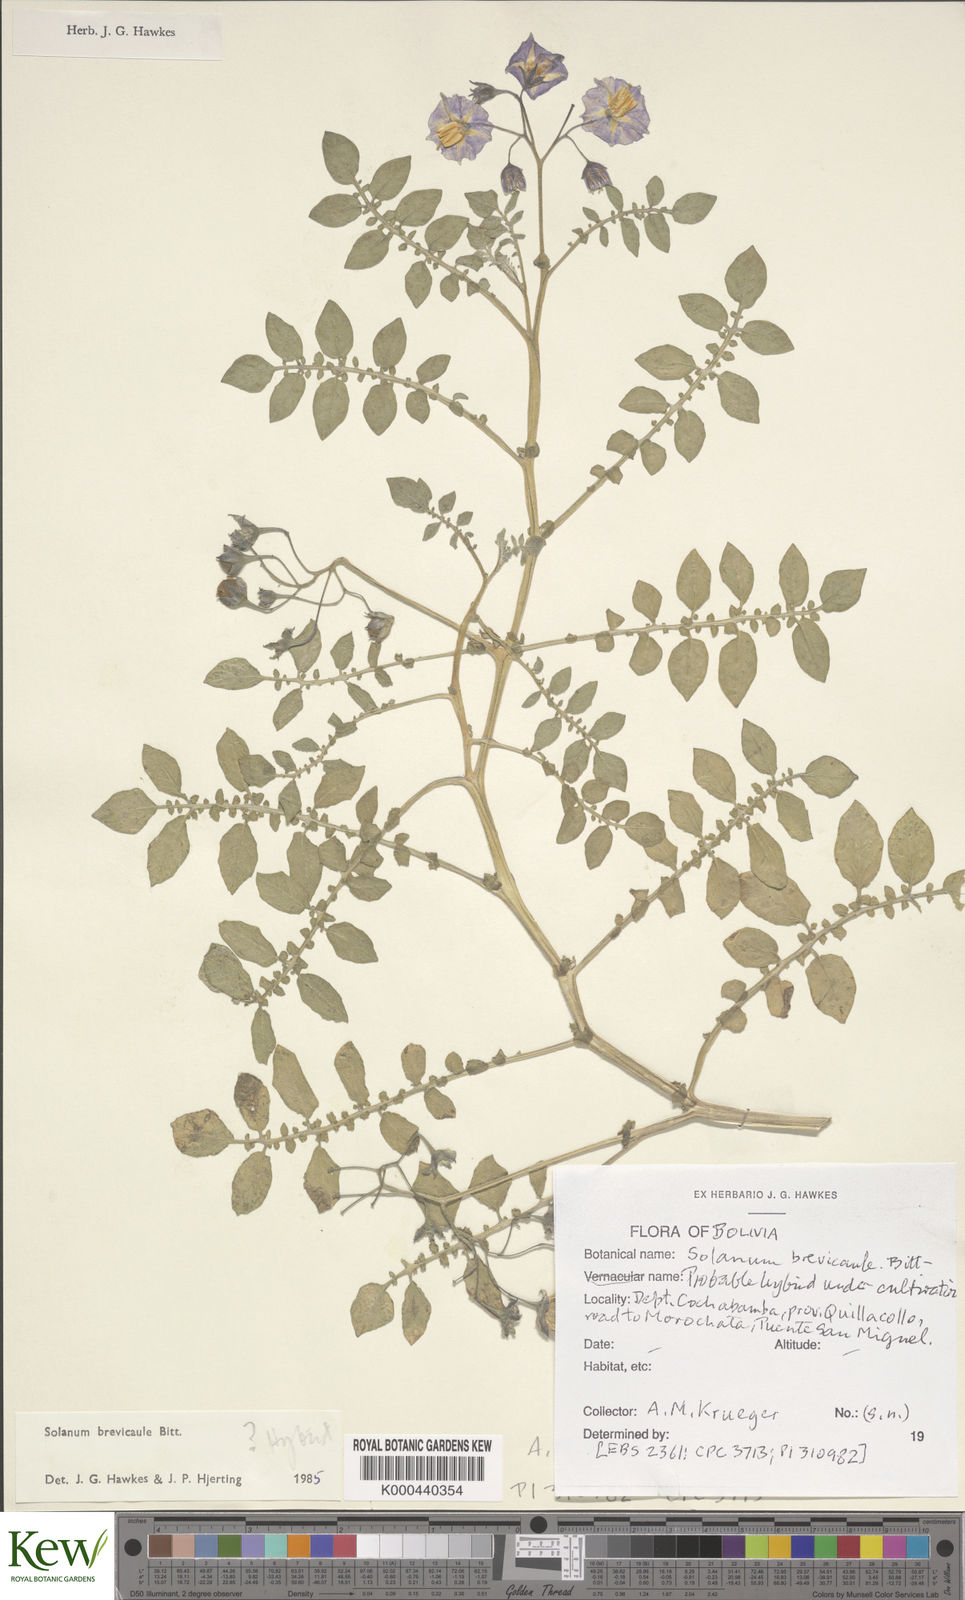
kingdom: Plantae
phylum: Tracheophyta
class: Magnoliopsida
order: Solanales
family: Solanaceae
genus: Solanum
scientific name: Solanum brevicaule
